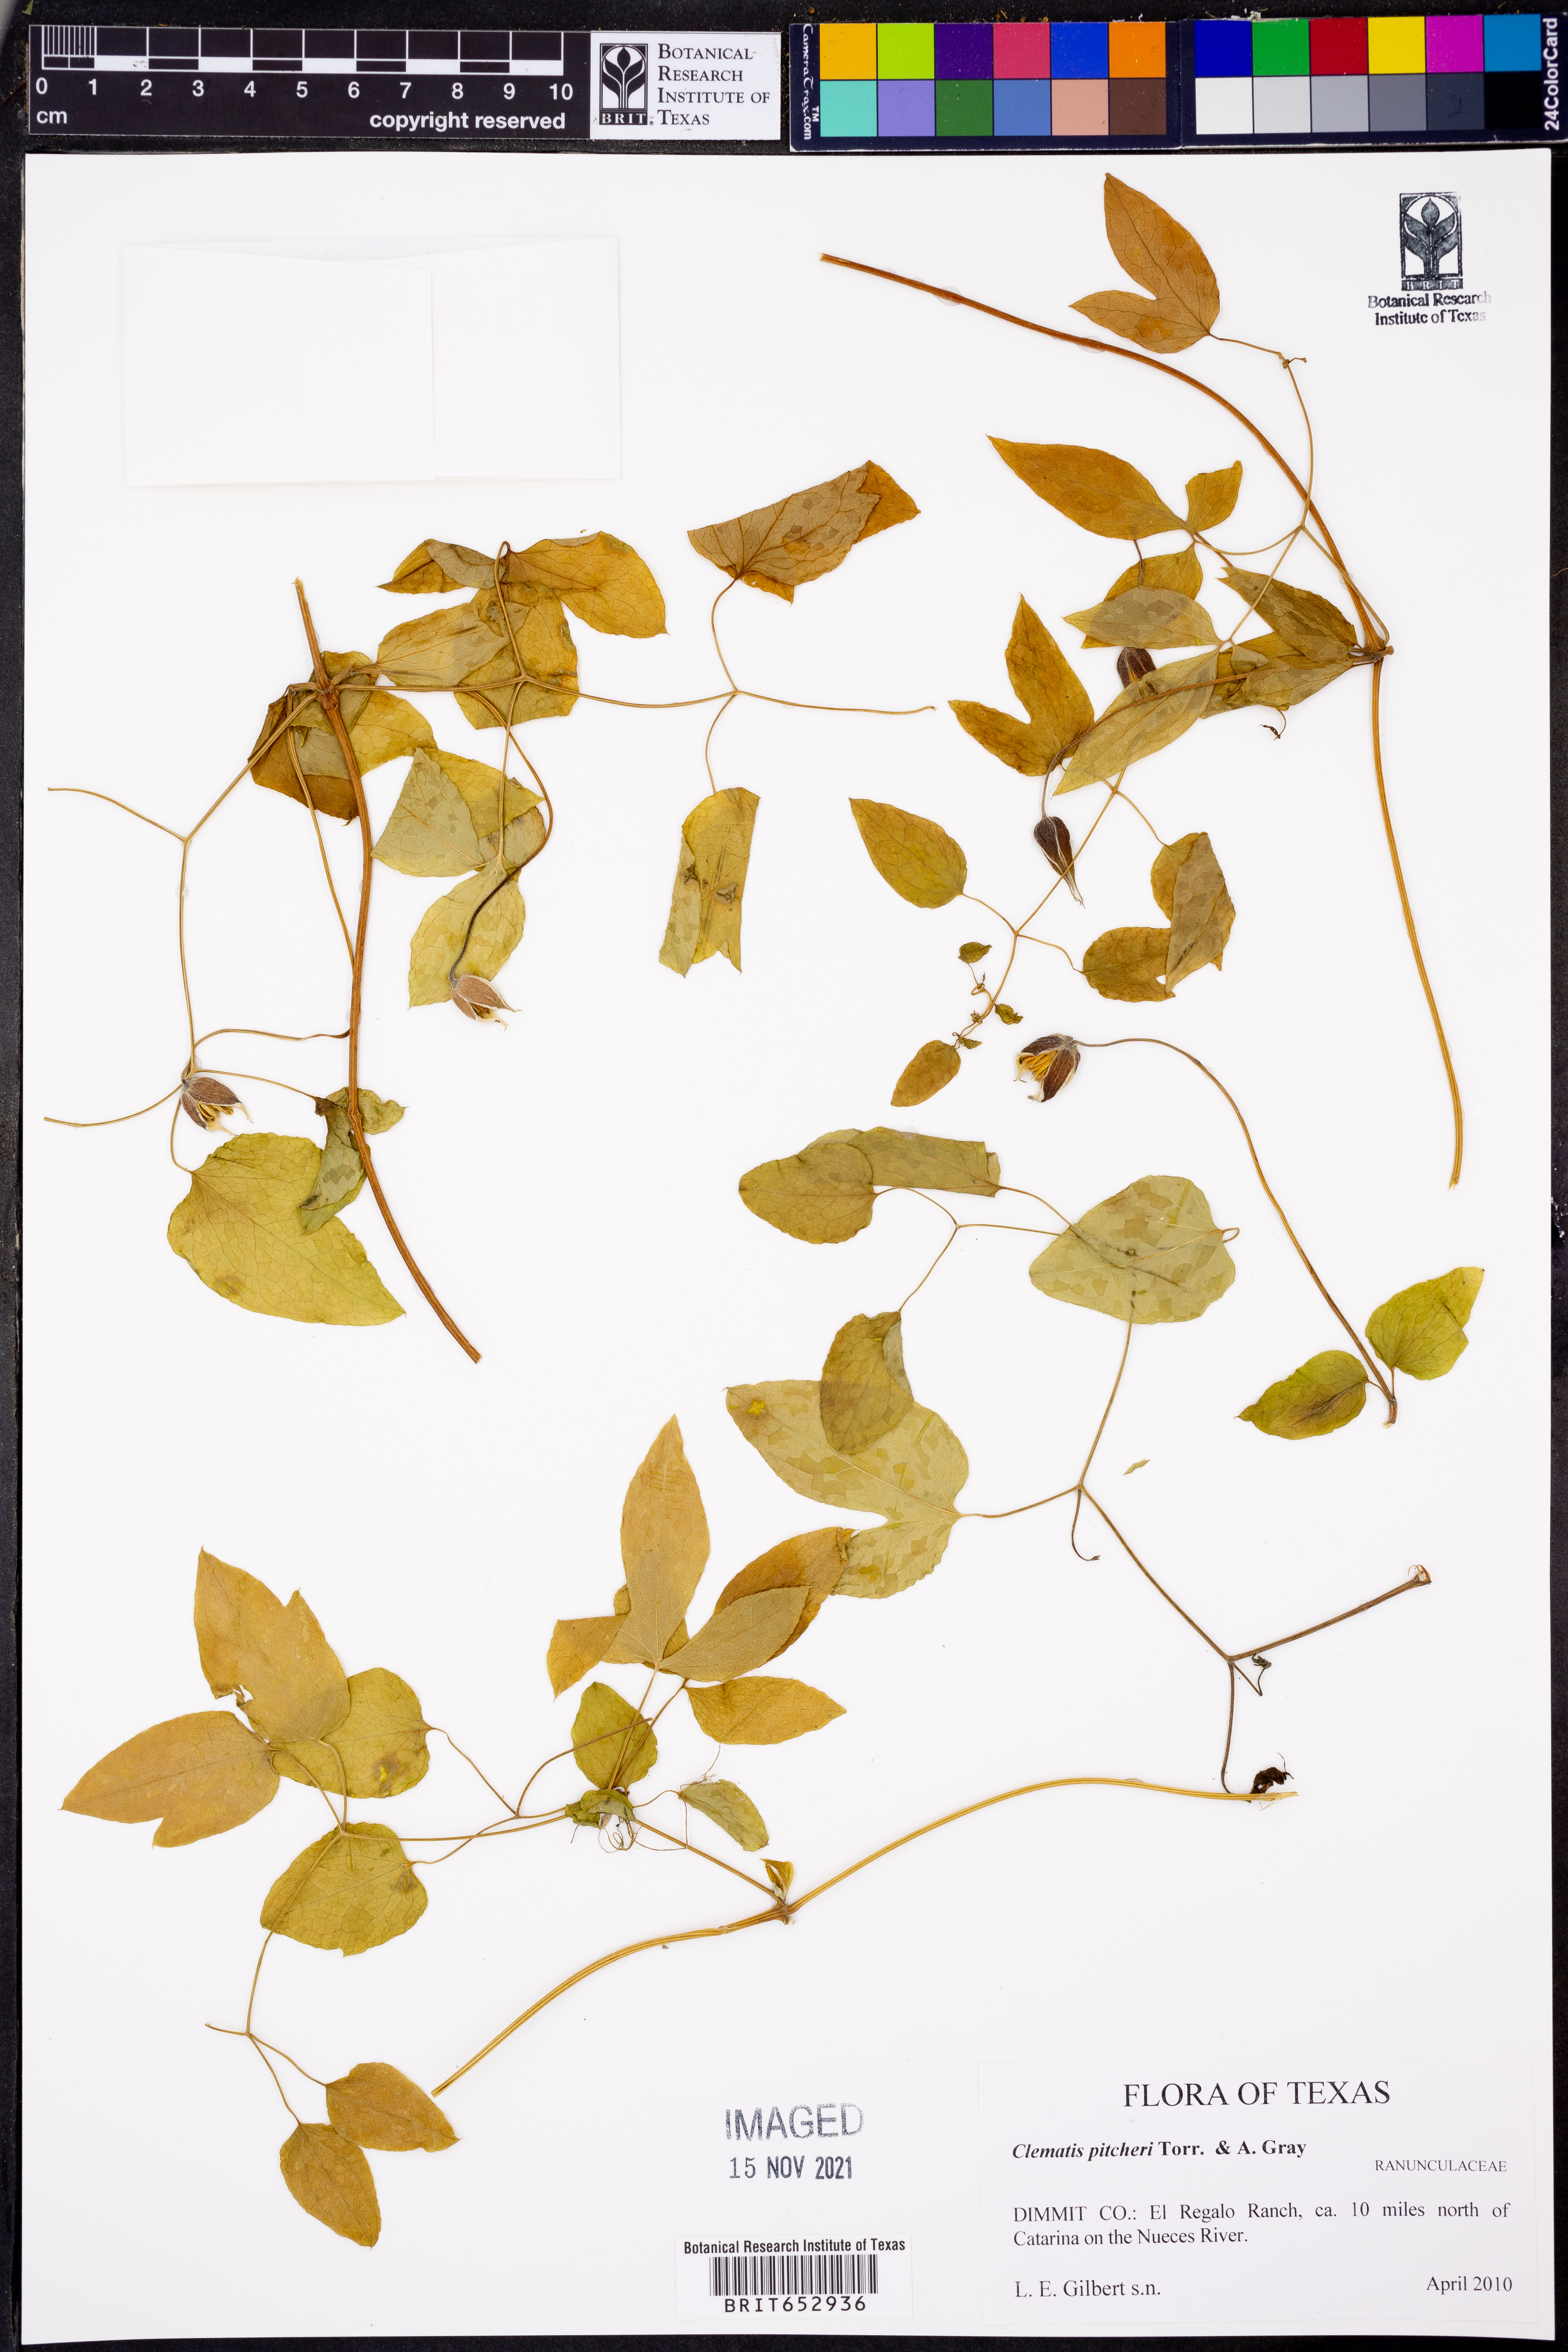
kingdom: Plantae
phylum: Tracheophyta
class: Magnoliopsida
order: Ranunculales
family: Ranunculaceae
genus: Clematis
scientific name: Clematis pitcheri
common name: Bellflower clematis
